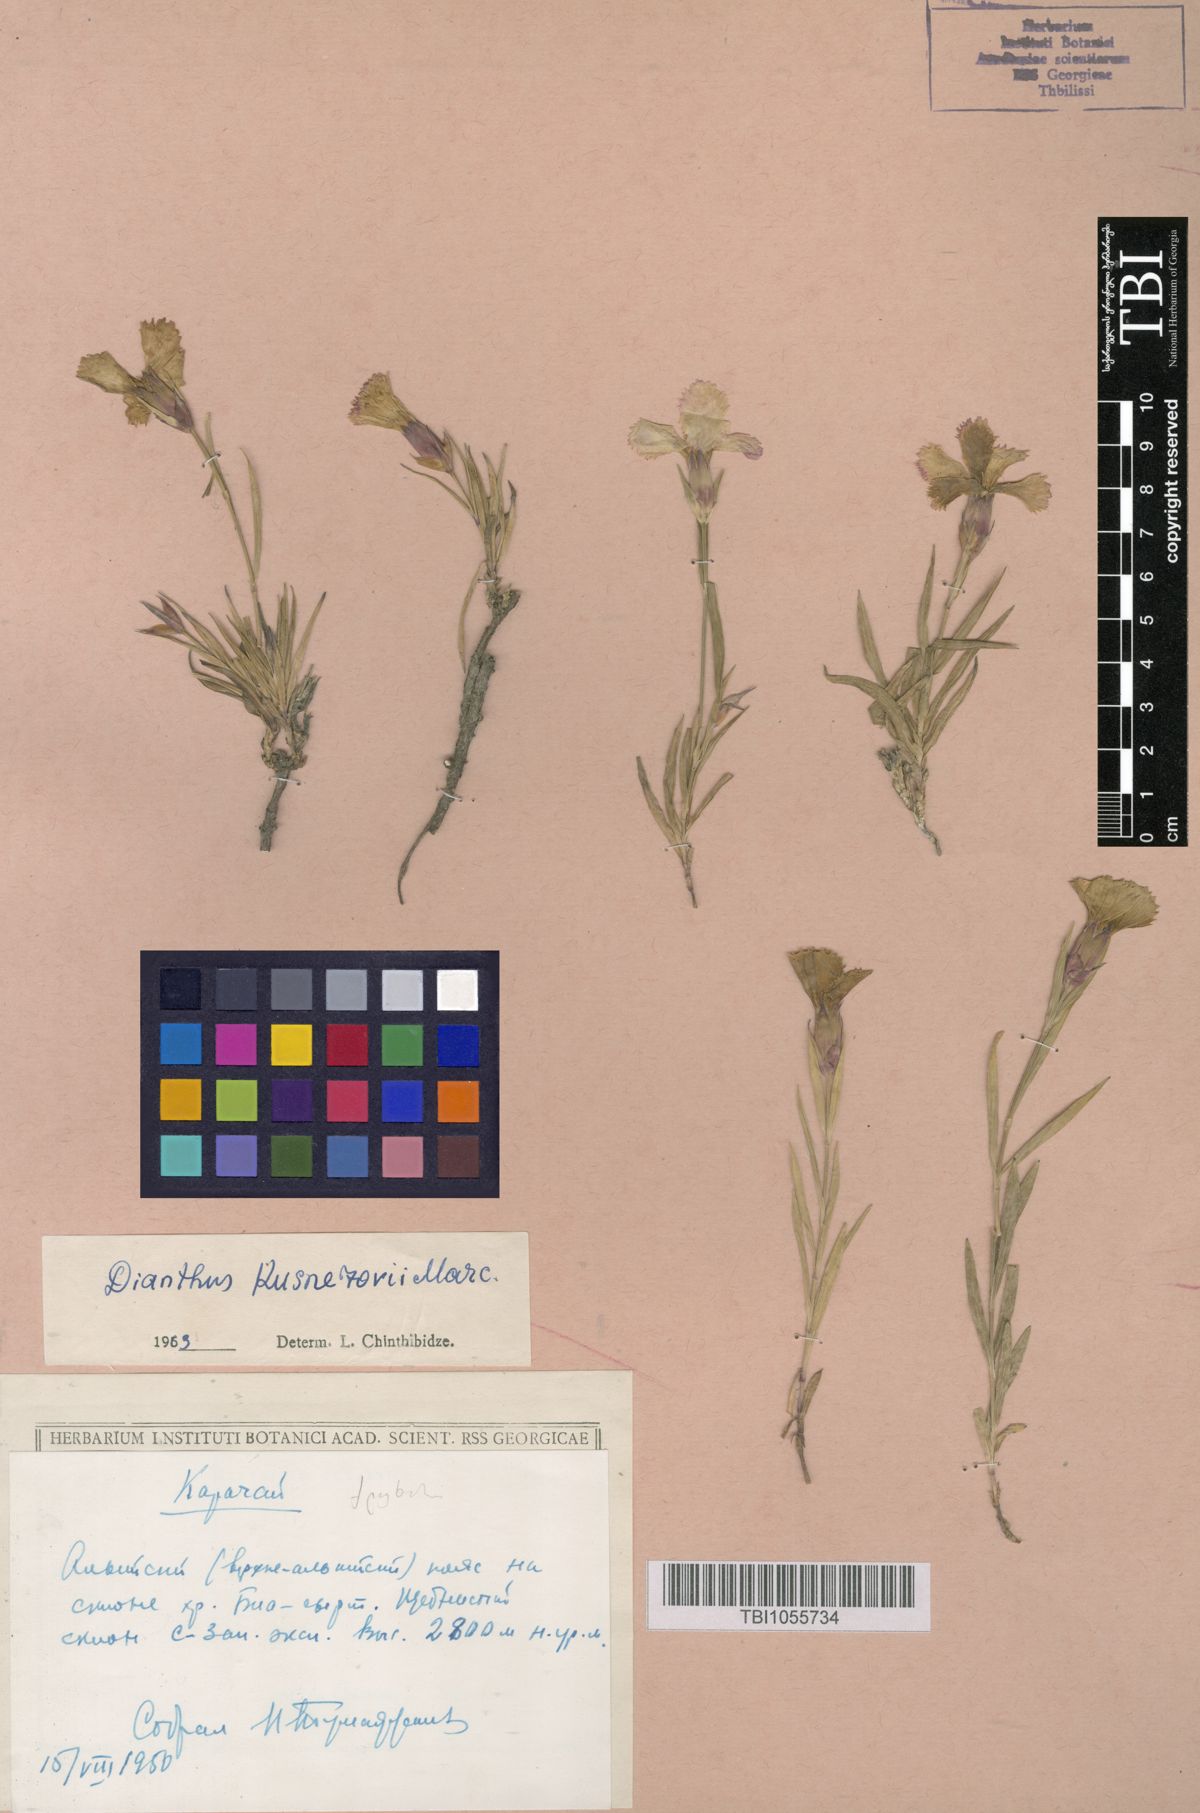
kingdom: Plantae
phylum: Tracheophyta
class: Magnoliopsida
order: Caryophyllales
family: Caryophyllaceae
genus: Dianthus
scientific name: Dianthus kusnezovii
